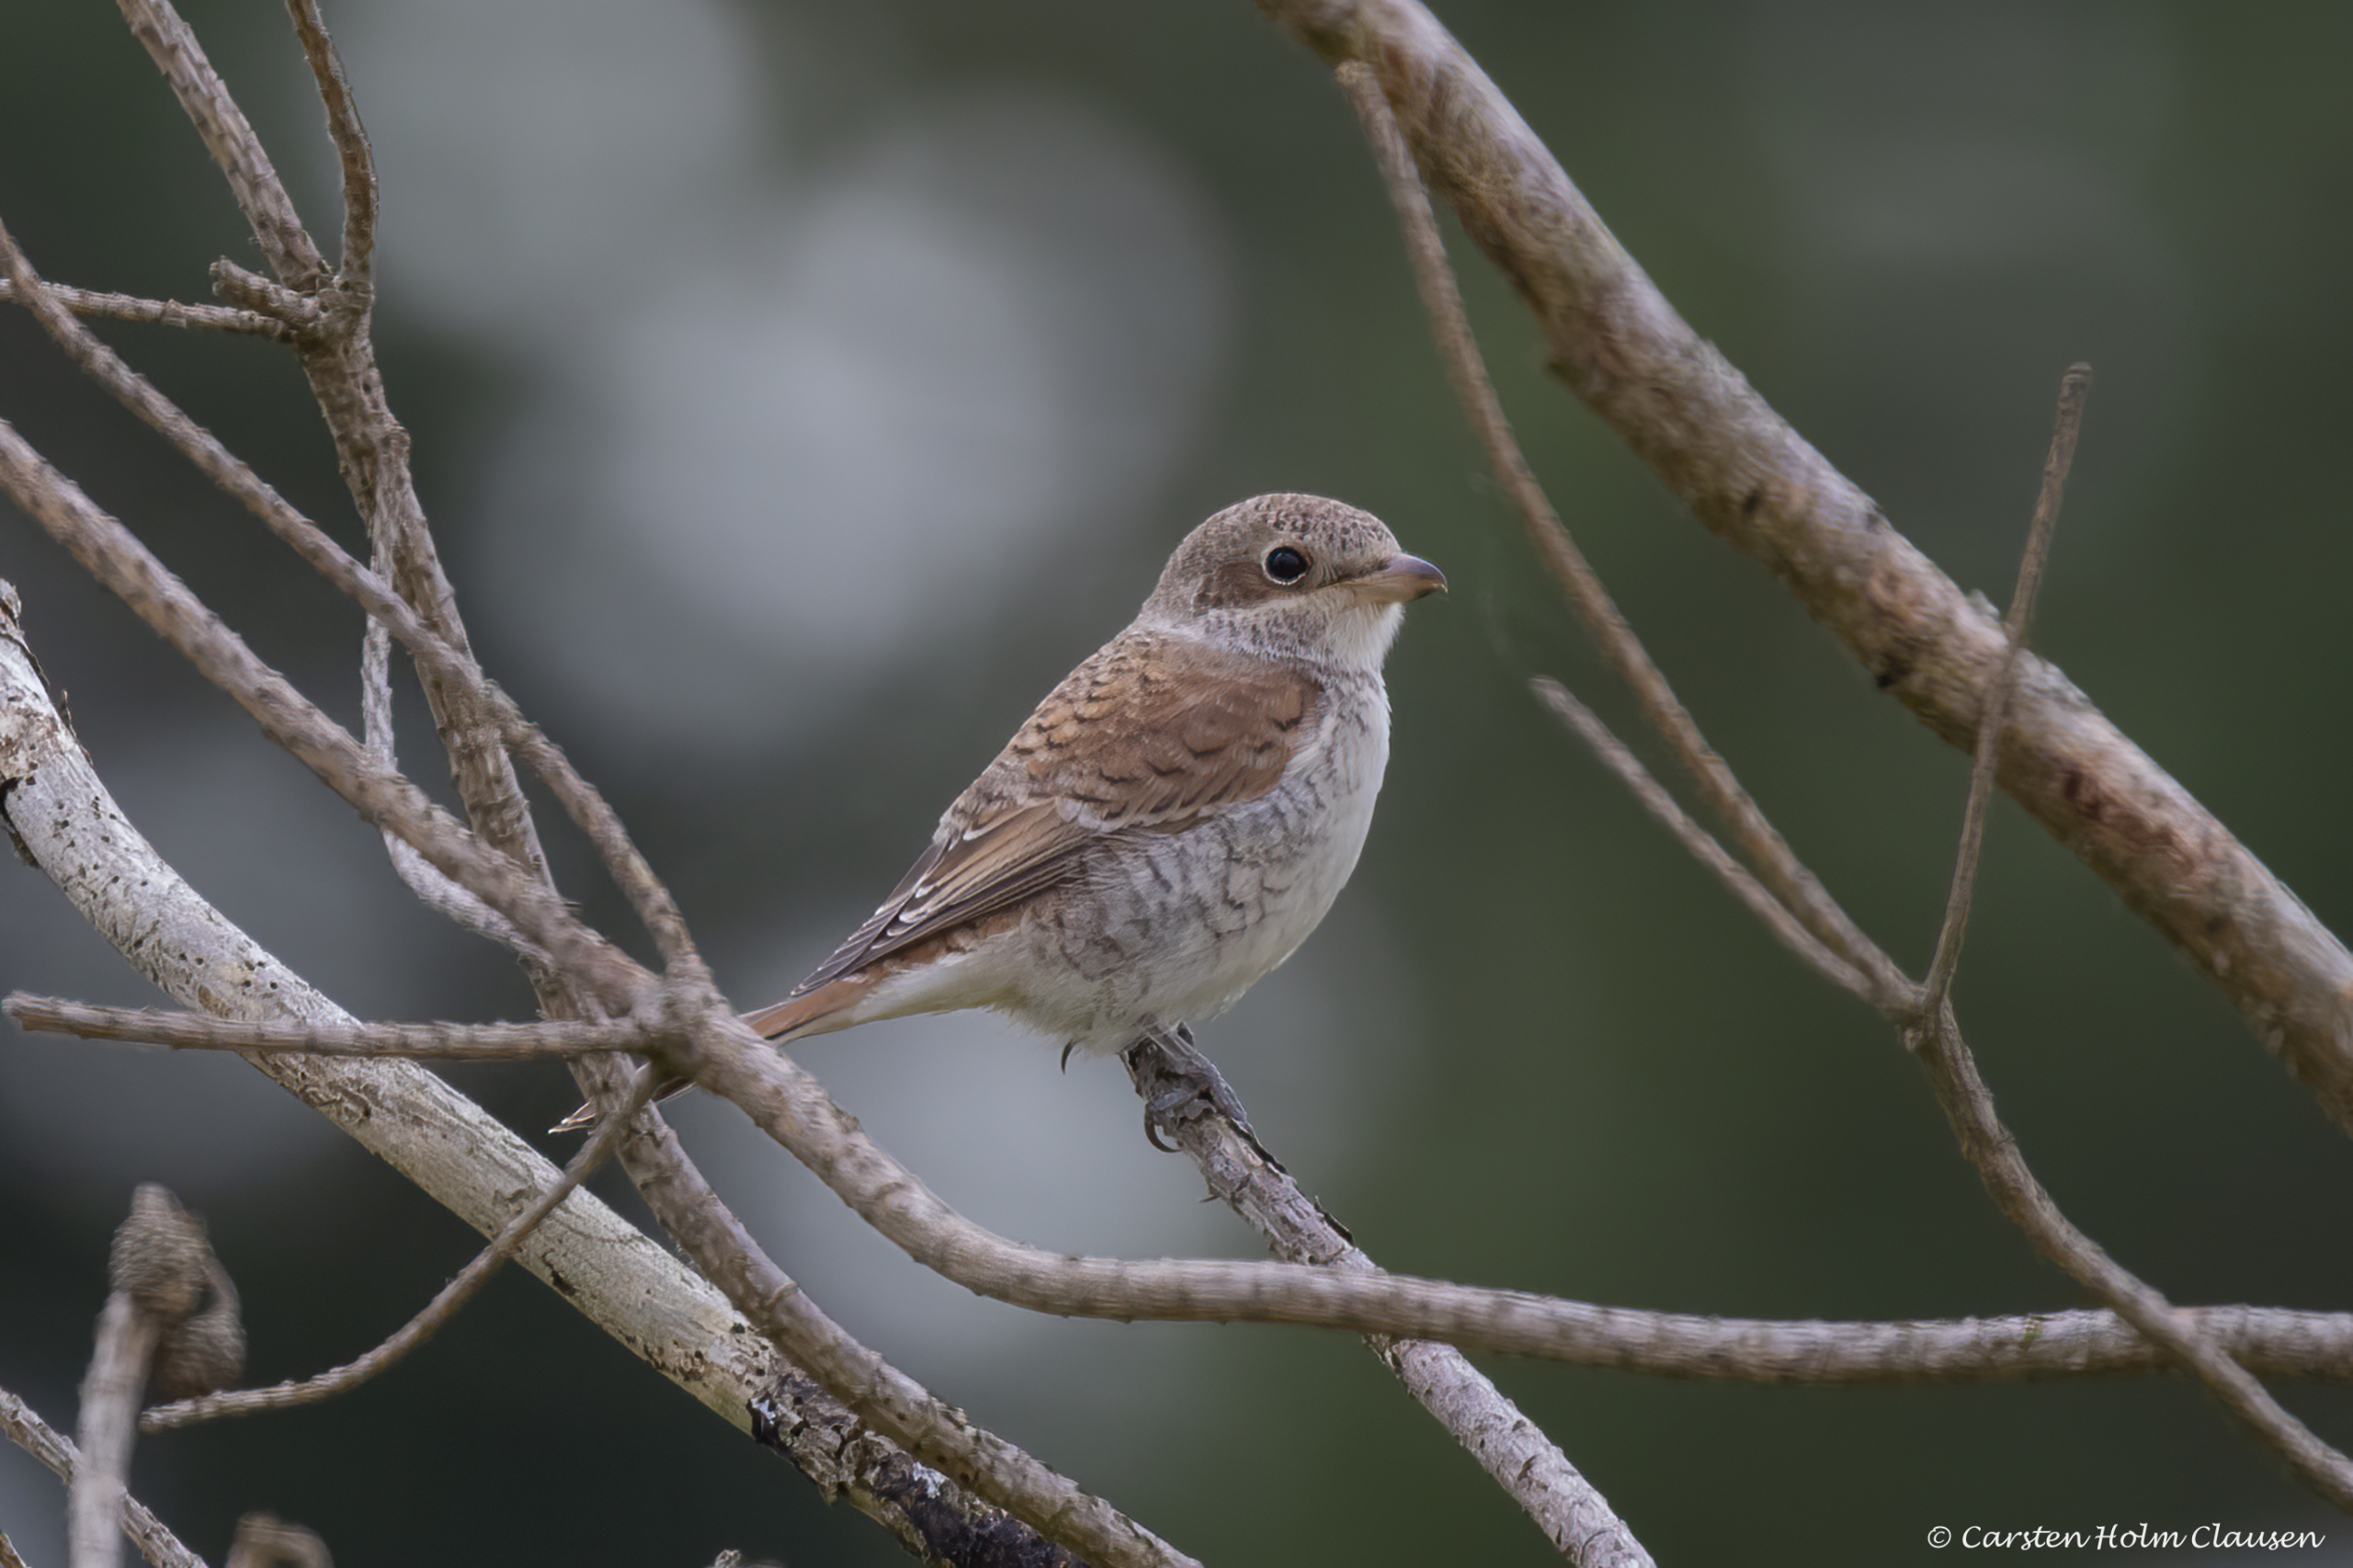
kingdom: Animalia
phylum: Chordata
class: Aves
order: Passeriformes
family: Laniidae
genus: Lanius
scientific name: Lanius collurio
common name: Rødrygget tornskade
